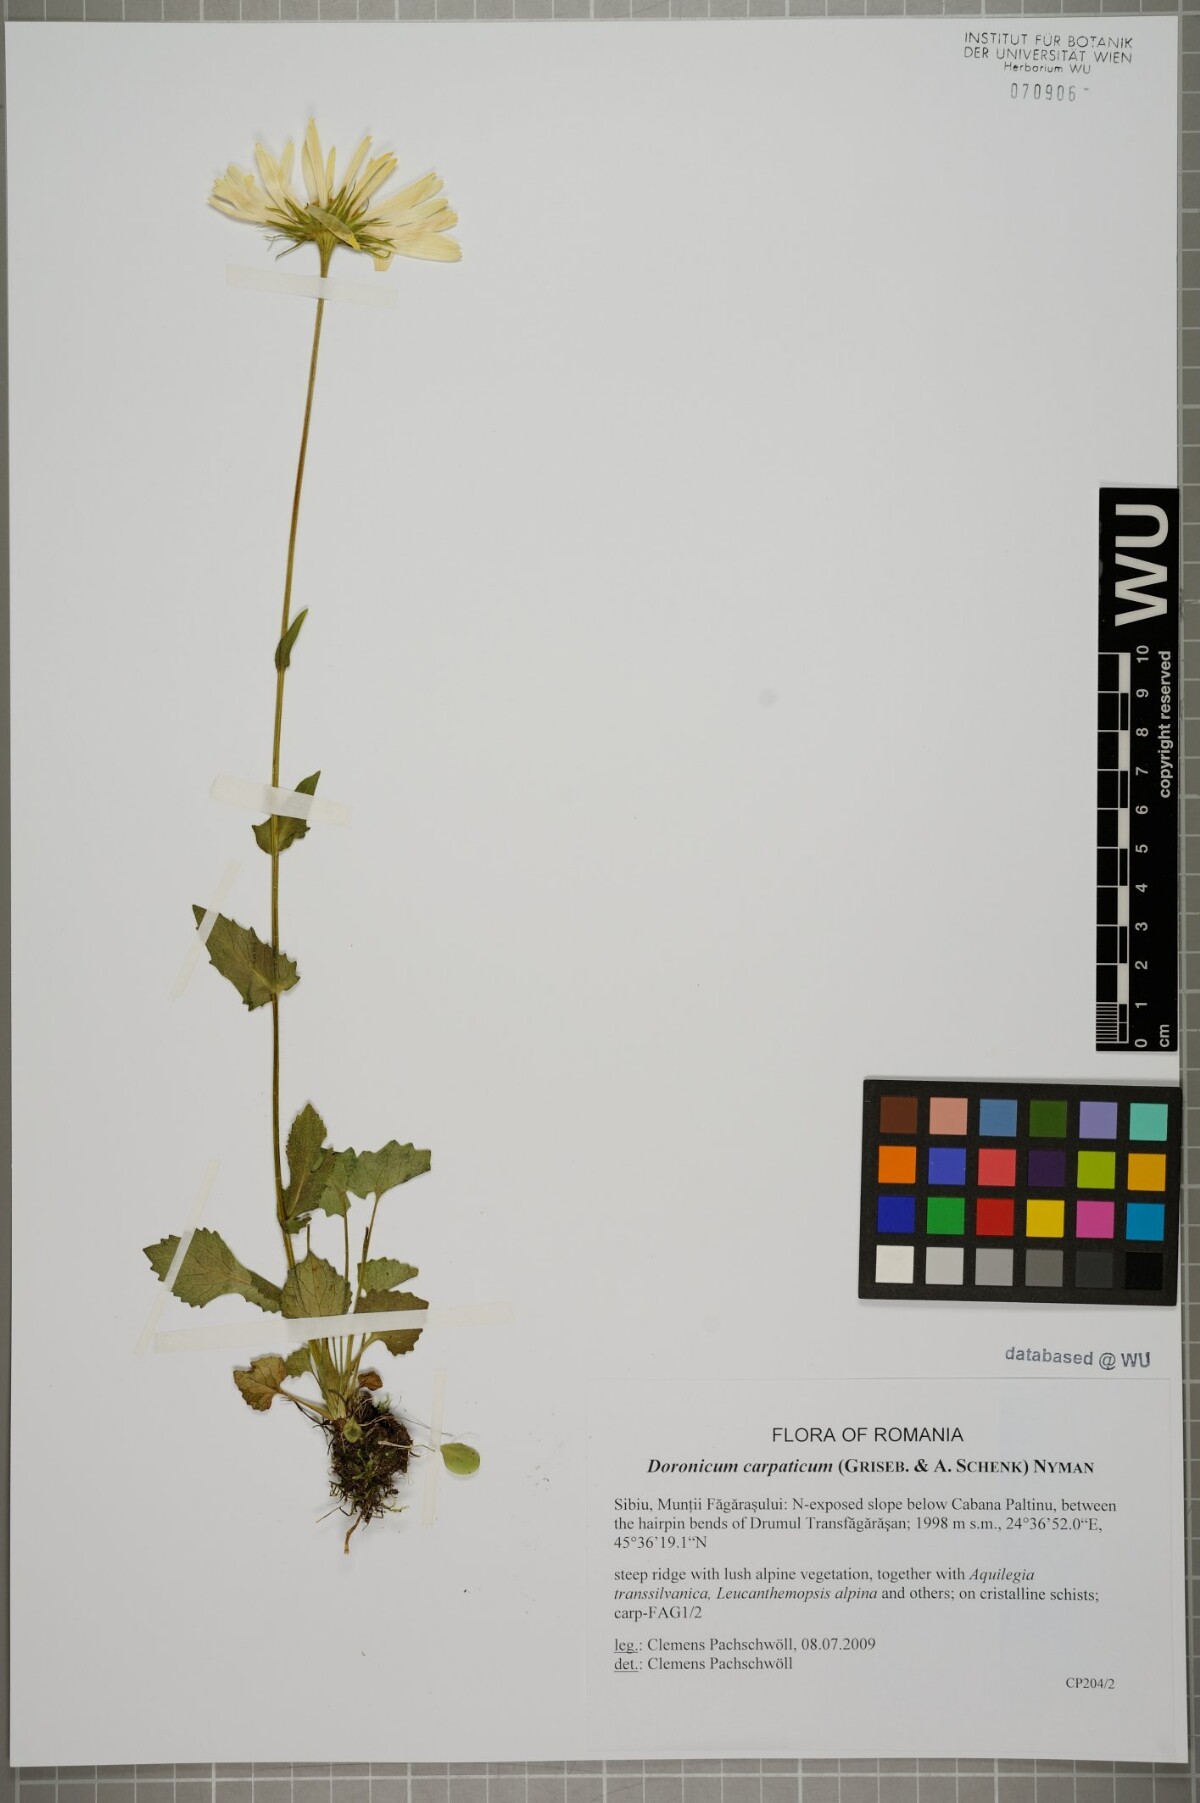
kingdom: Plantae
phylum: Tracheophyta
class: Magnoliopsida
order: Asterales
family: Asteraceae
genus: Doronicum
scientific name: Doronicum carpaticum
